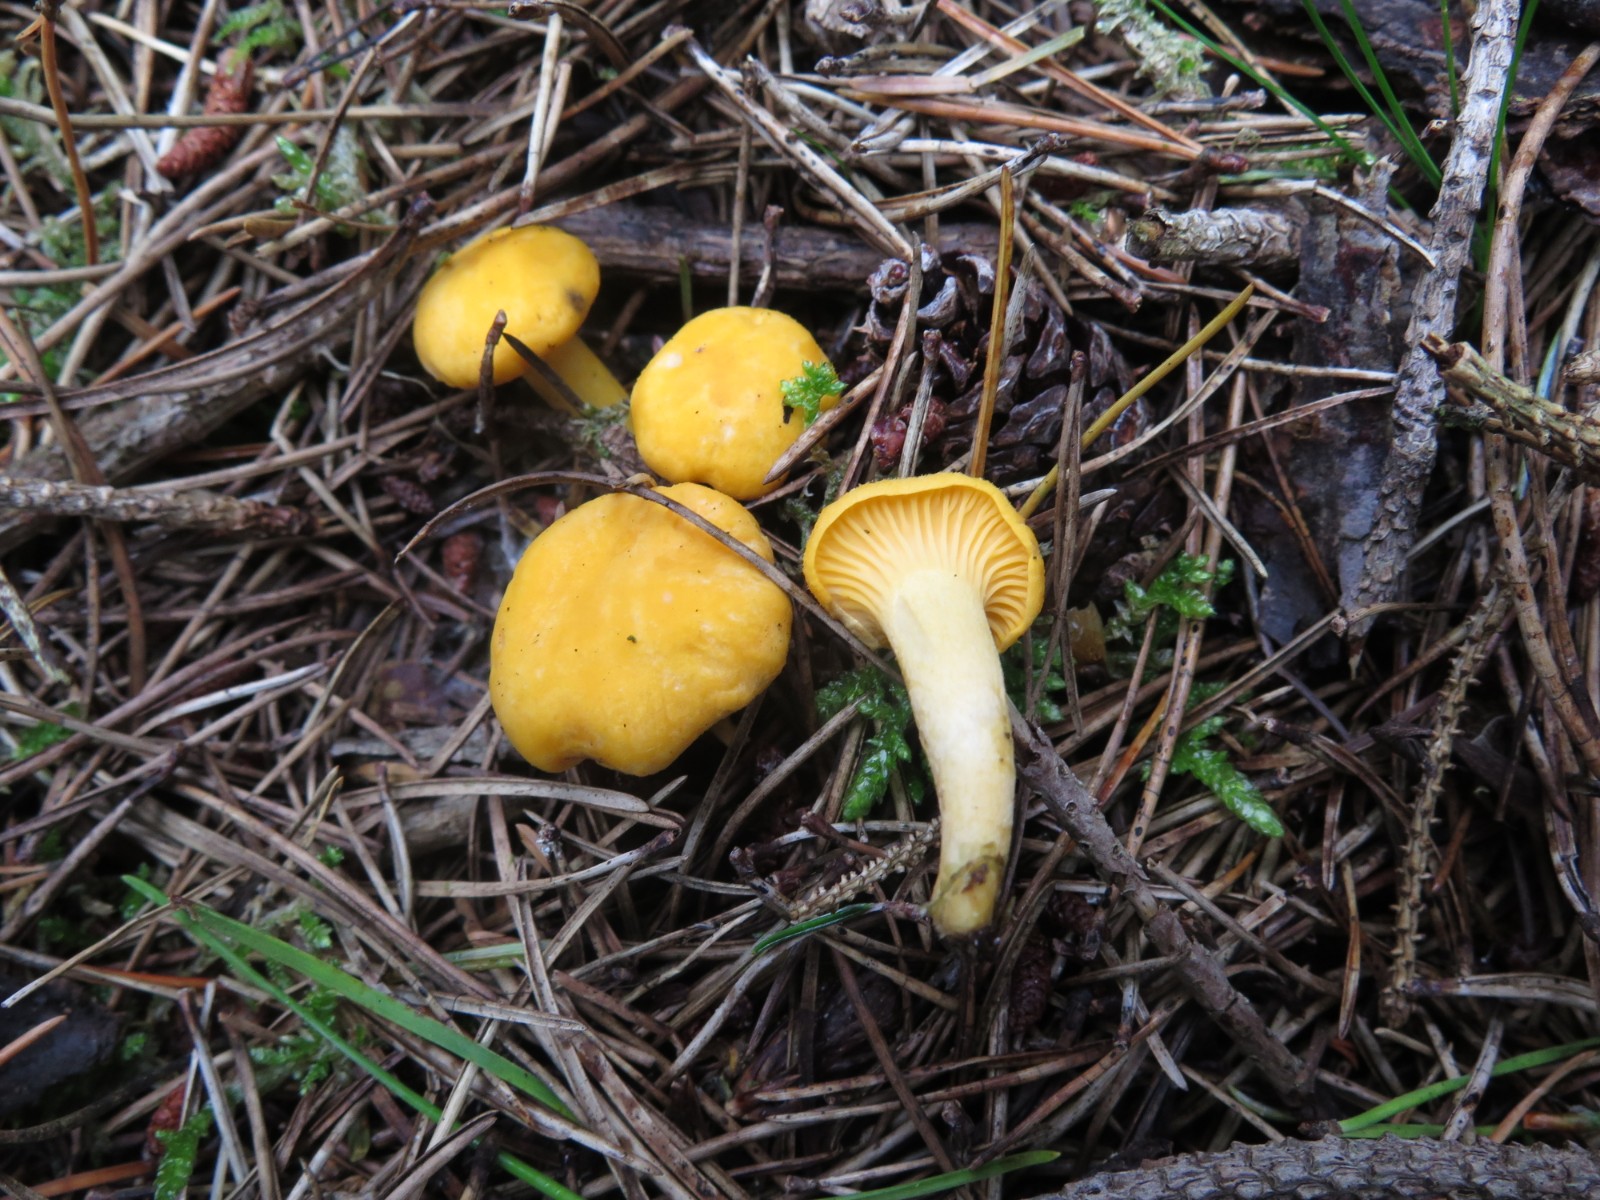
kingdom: Fungi
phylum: Basidiomycota
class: Agaricomycetes
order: Cantharellales
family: Hydnaceae
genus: Cantharellus
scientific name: Cantharellus cibarius
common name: almindelig kantarel
